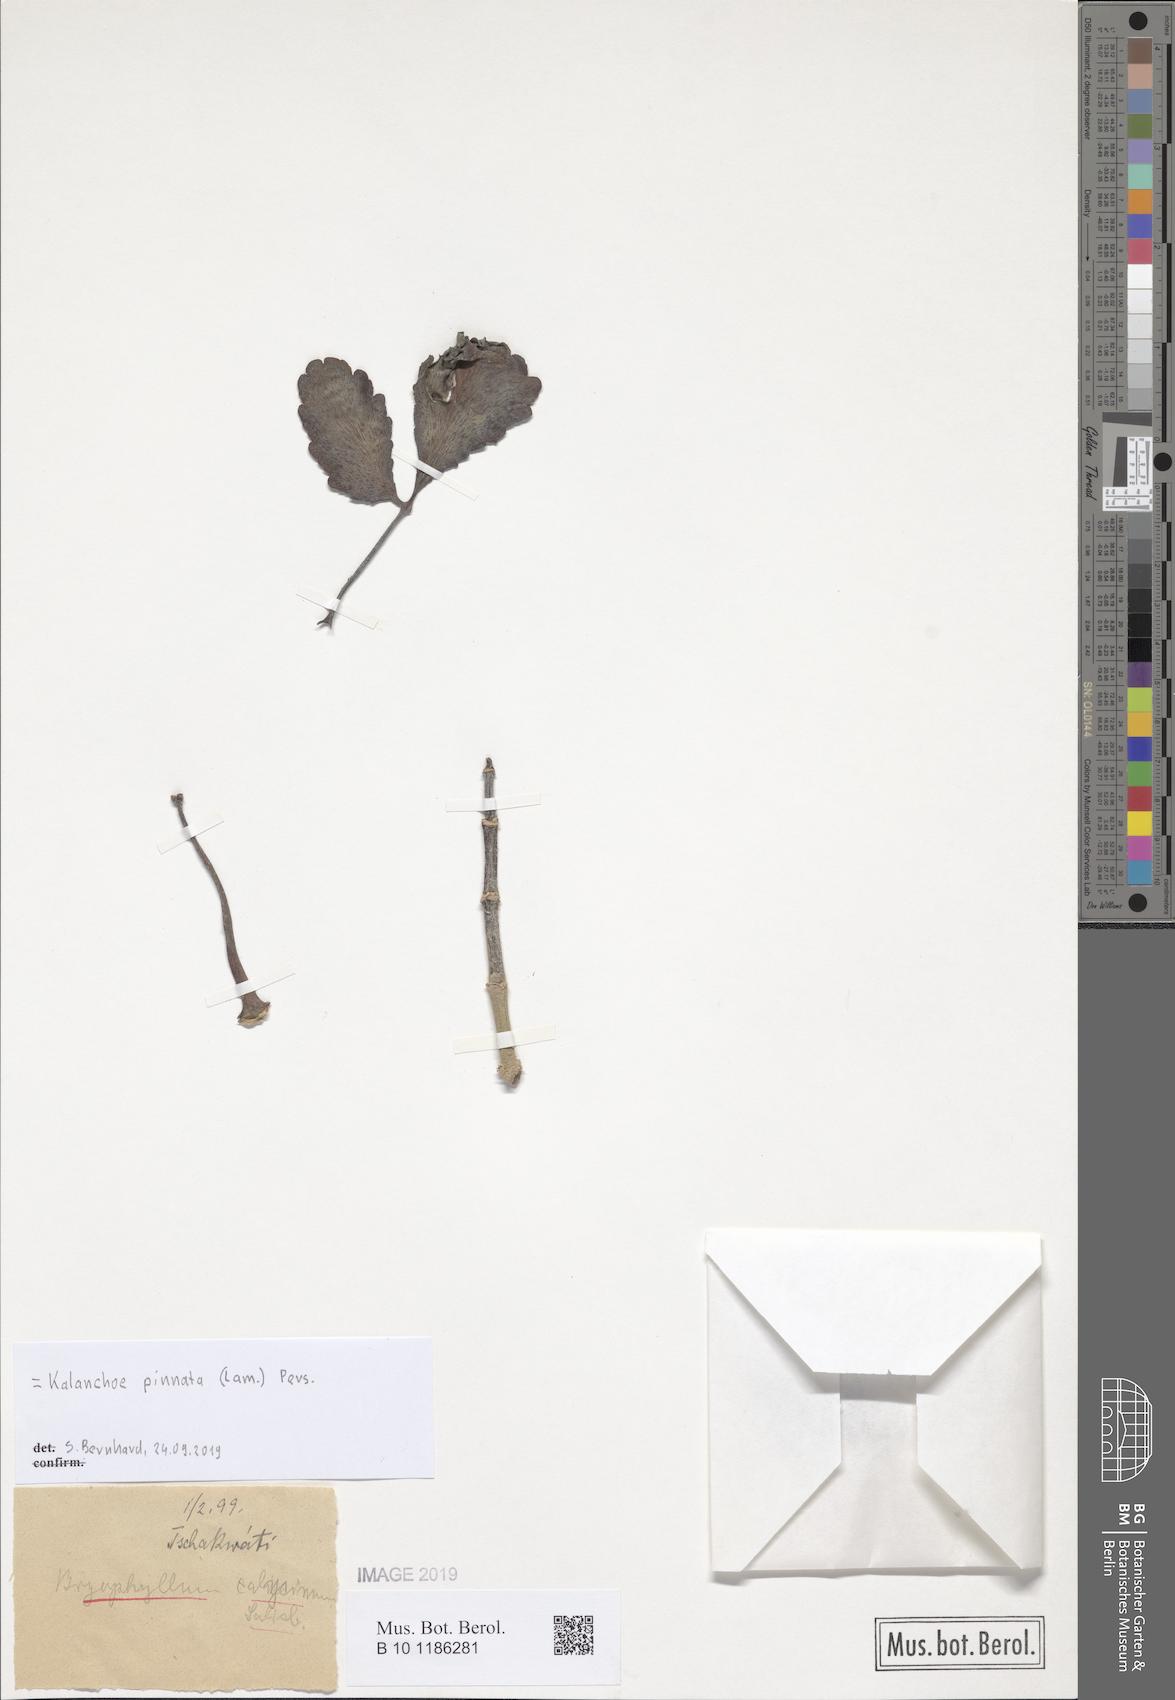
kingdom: Plantae
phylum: Tracheophyta
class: Magnoliopsida
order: Saxifragales
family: Crassulaceae
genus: Kalanchoe
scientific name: Kalanchoe pinnata
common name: Cathedral bells
